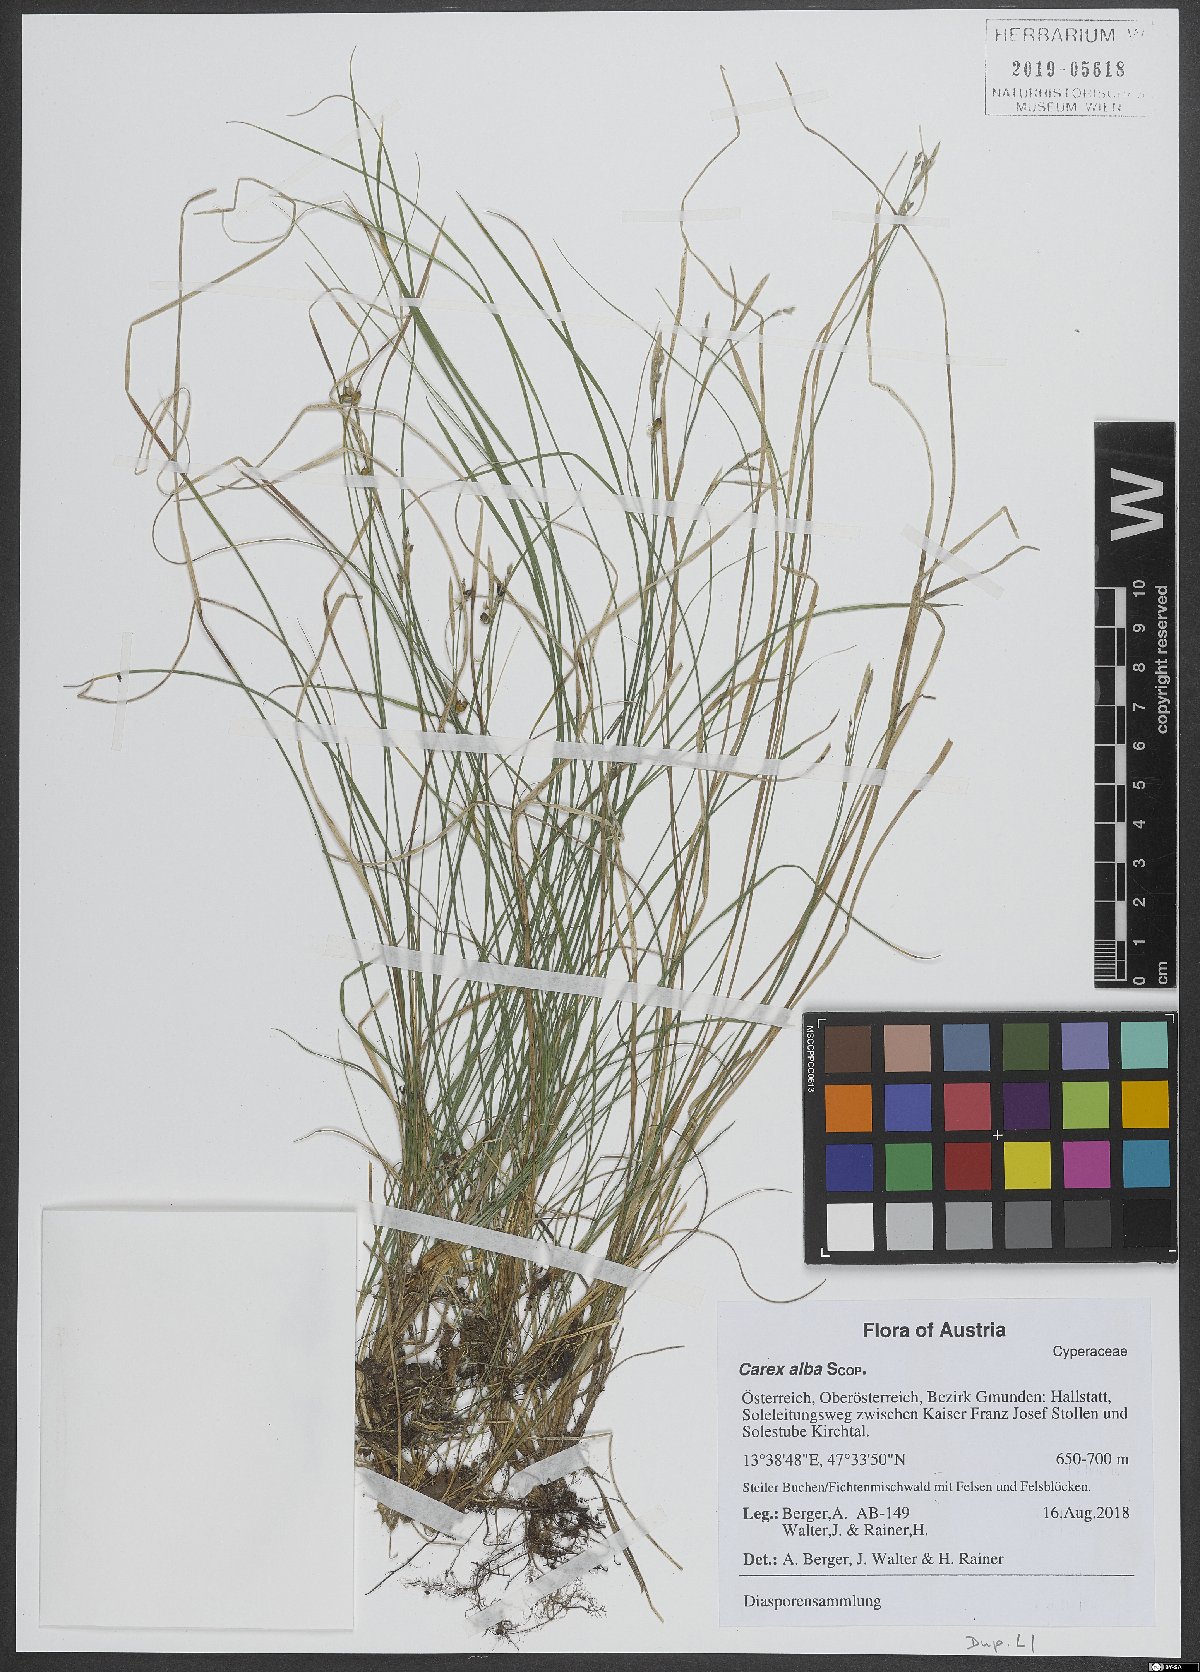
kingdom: Plantae
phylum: Tracheophyta
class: Liliopsida
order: Poales
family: Cyperaceae
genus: Carex
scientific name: Carex alba
